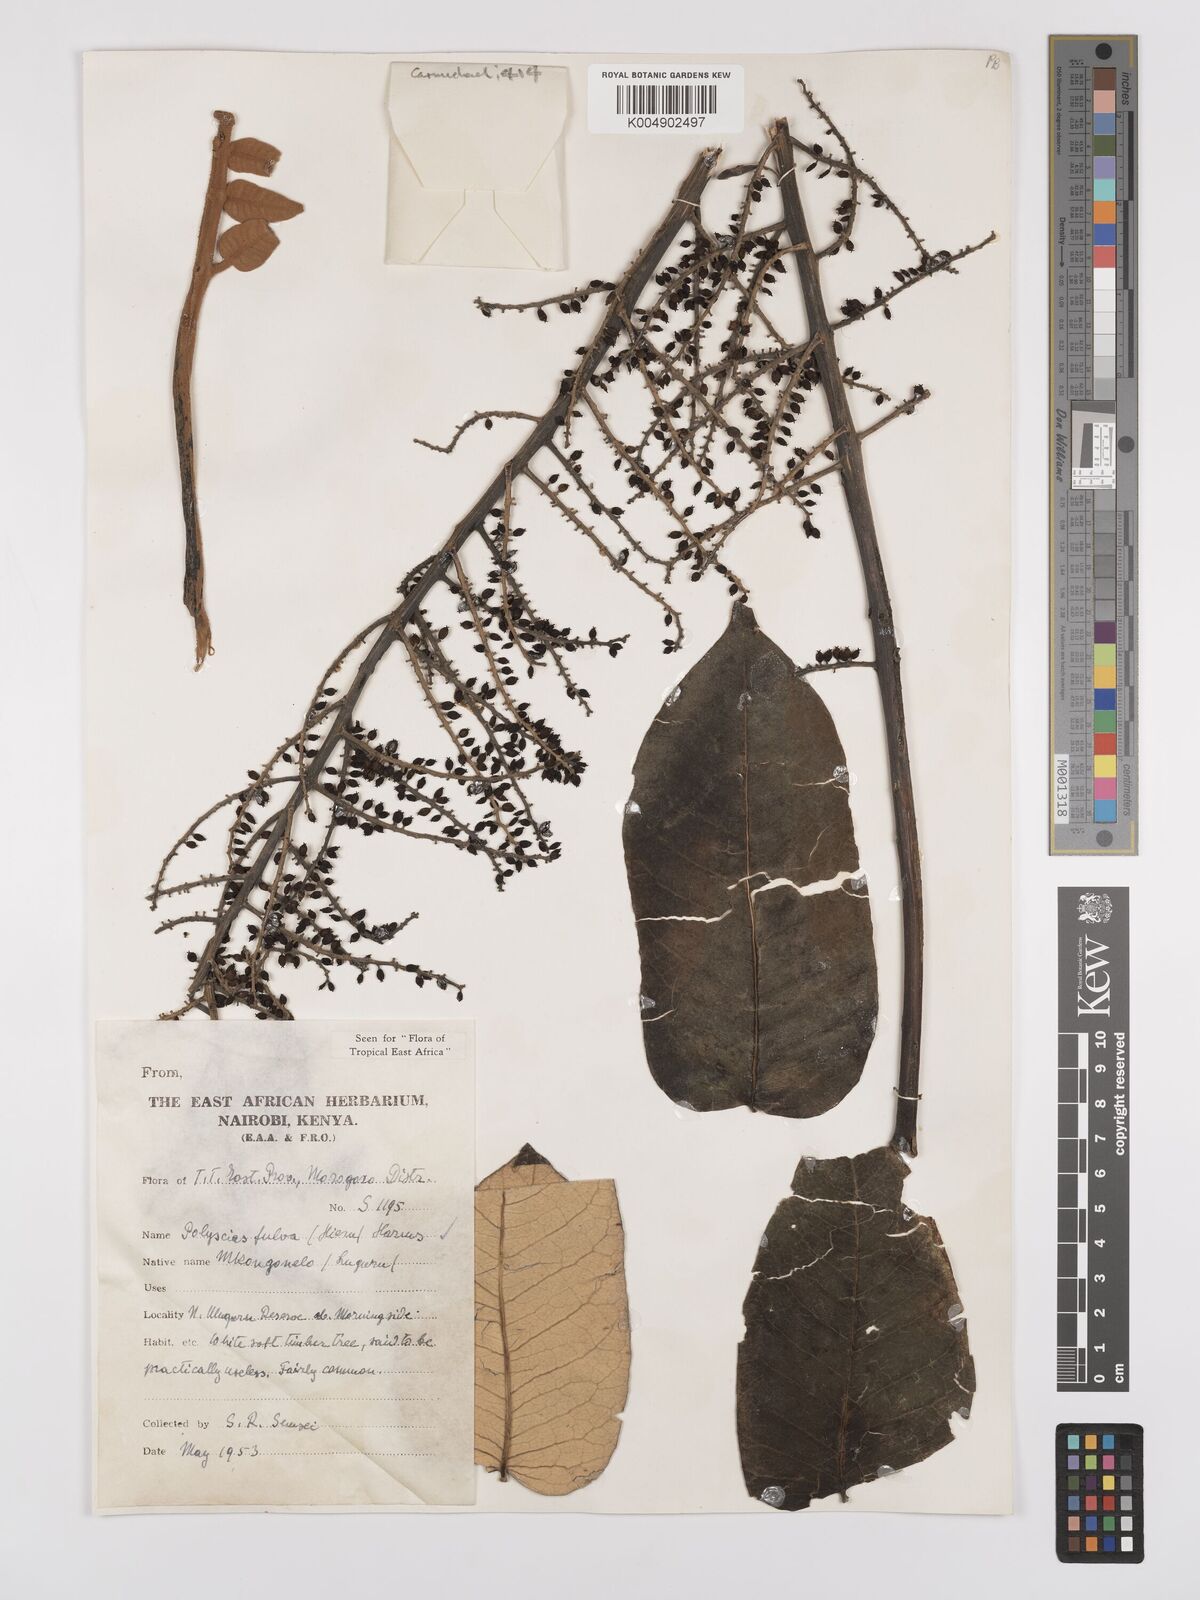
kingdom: Plantae
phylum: Tracheophyta
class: Magnoliopsida
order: Apiales
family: Araliaceae
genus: Polyscias
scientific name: Polyscias fulva
